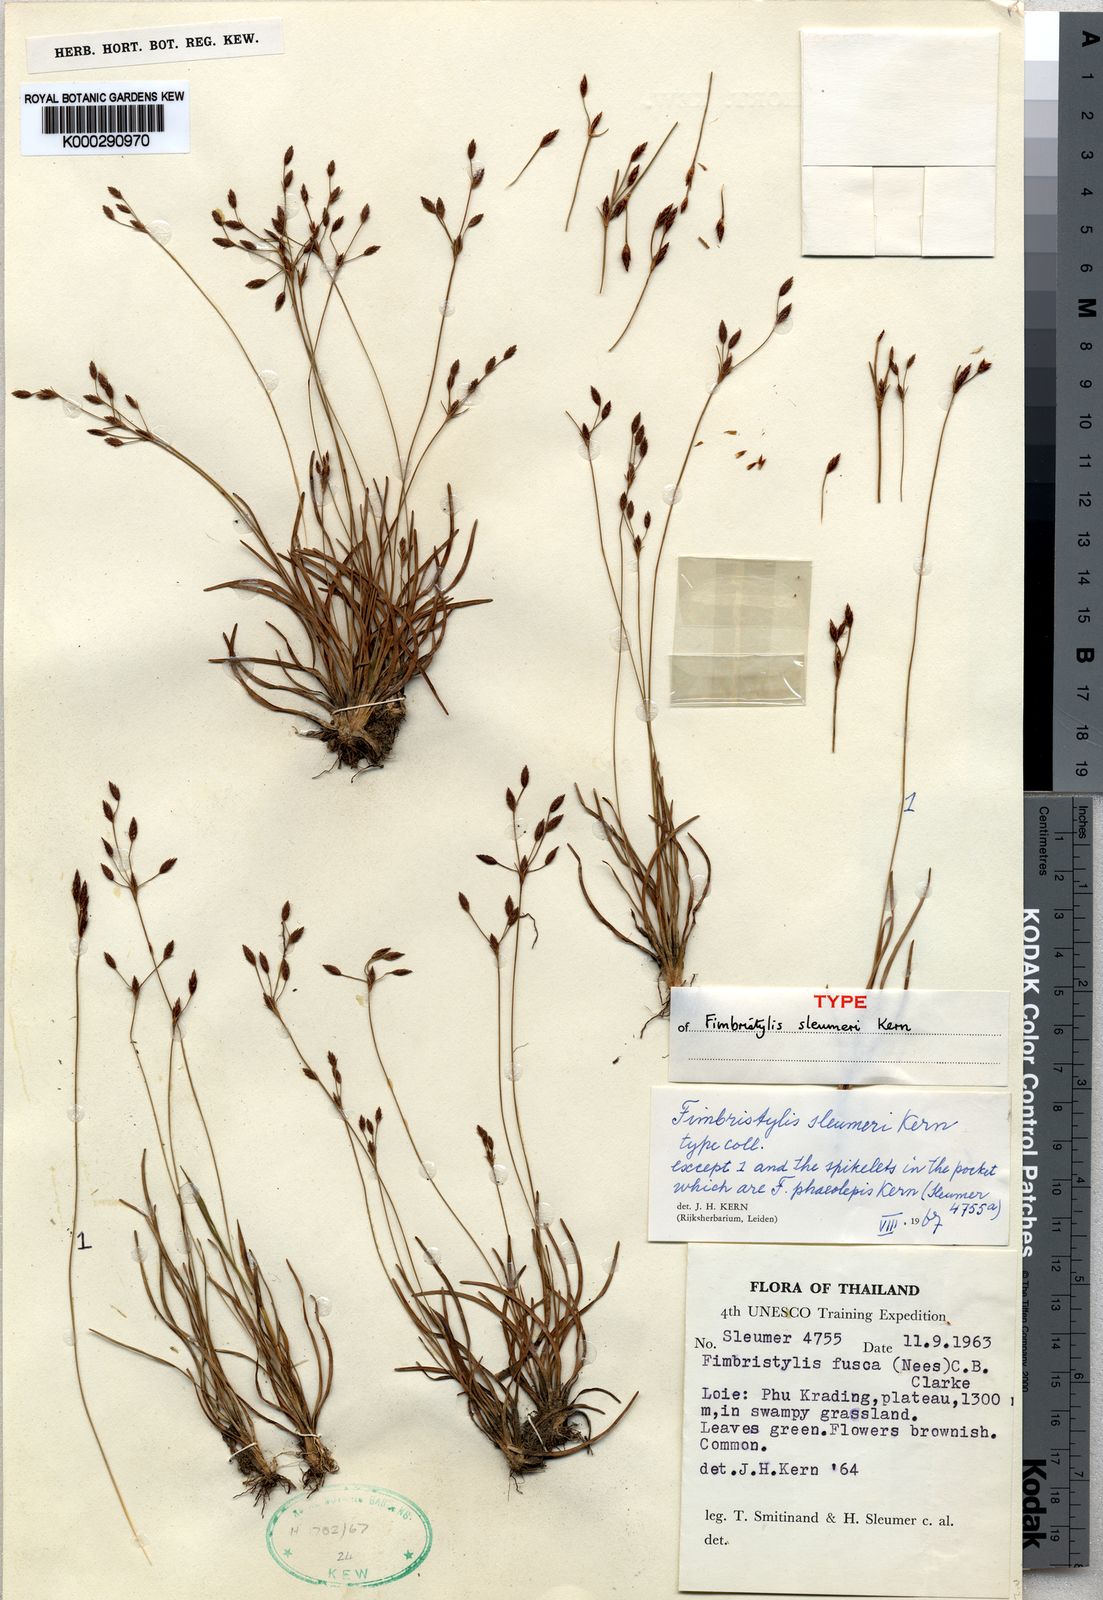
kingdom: Plantae
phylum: Tracheophyta
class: Liliopsida
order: Poales
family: Cyperaceae
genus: Fimbristylis
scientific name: Fimbristylis sleumeri
